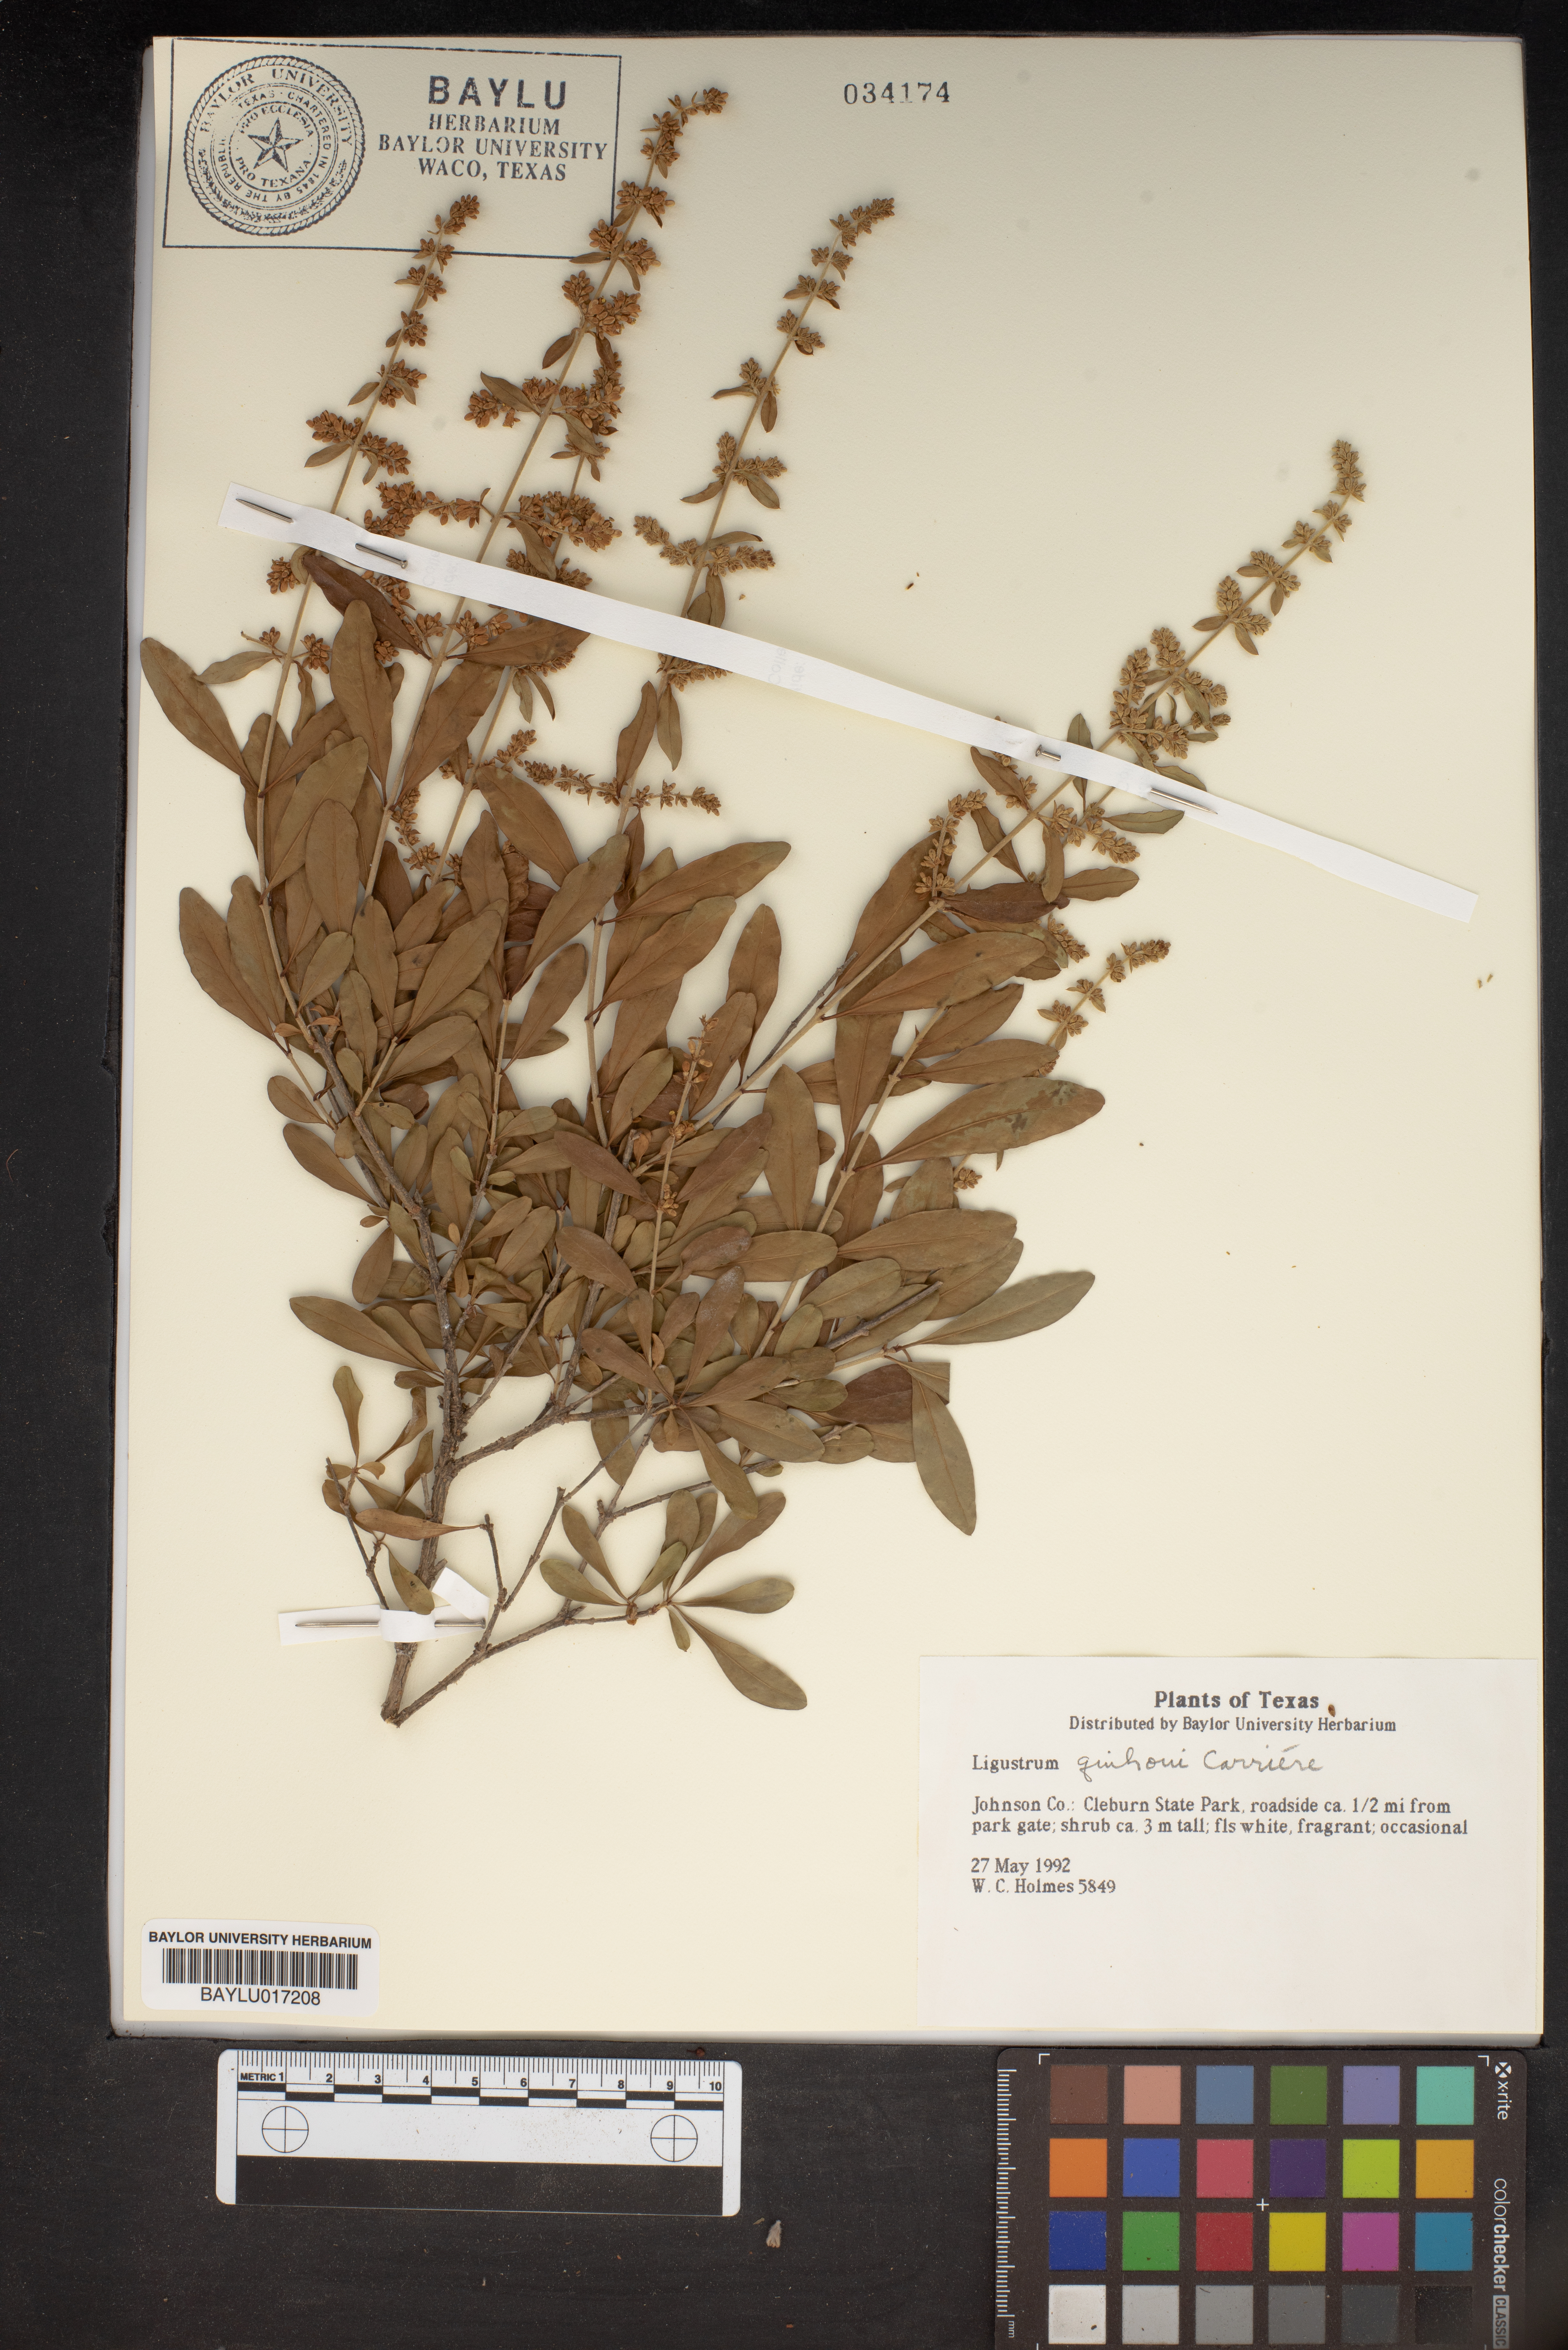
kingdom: Plantae
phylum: Tracheophyta
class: Magnoliopsida
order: Lamiales
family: Oleaceae
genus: Ligustrum
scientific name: Ligustrum quihoui
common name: Waxyleaf privet
